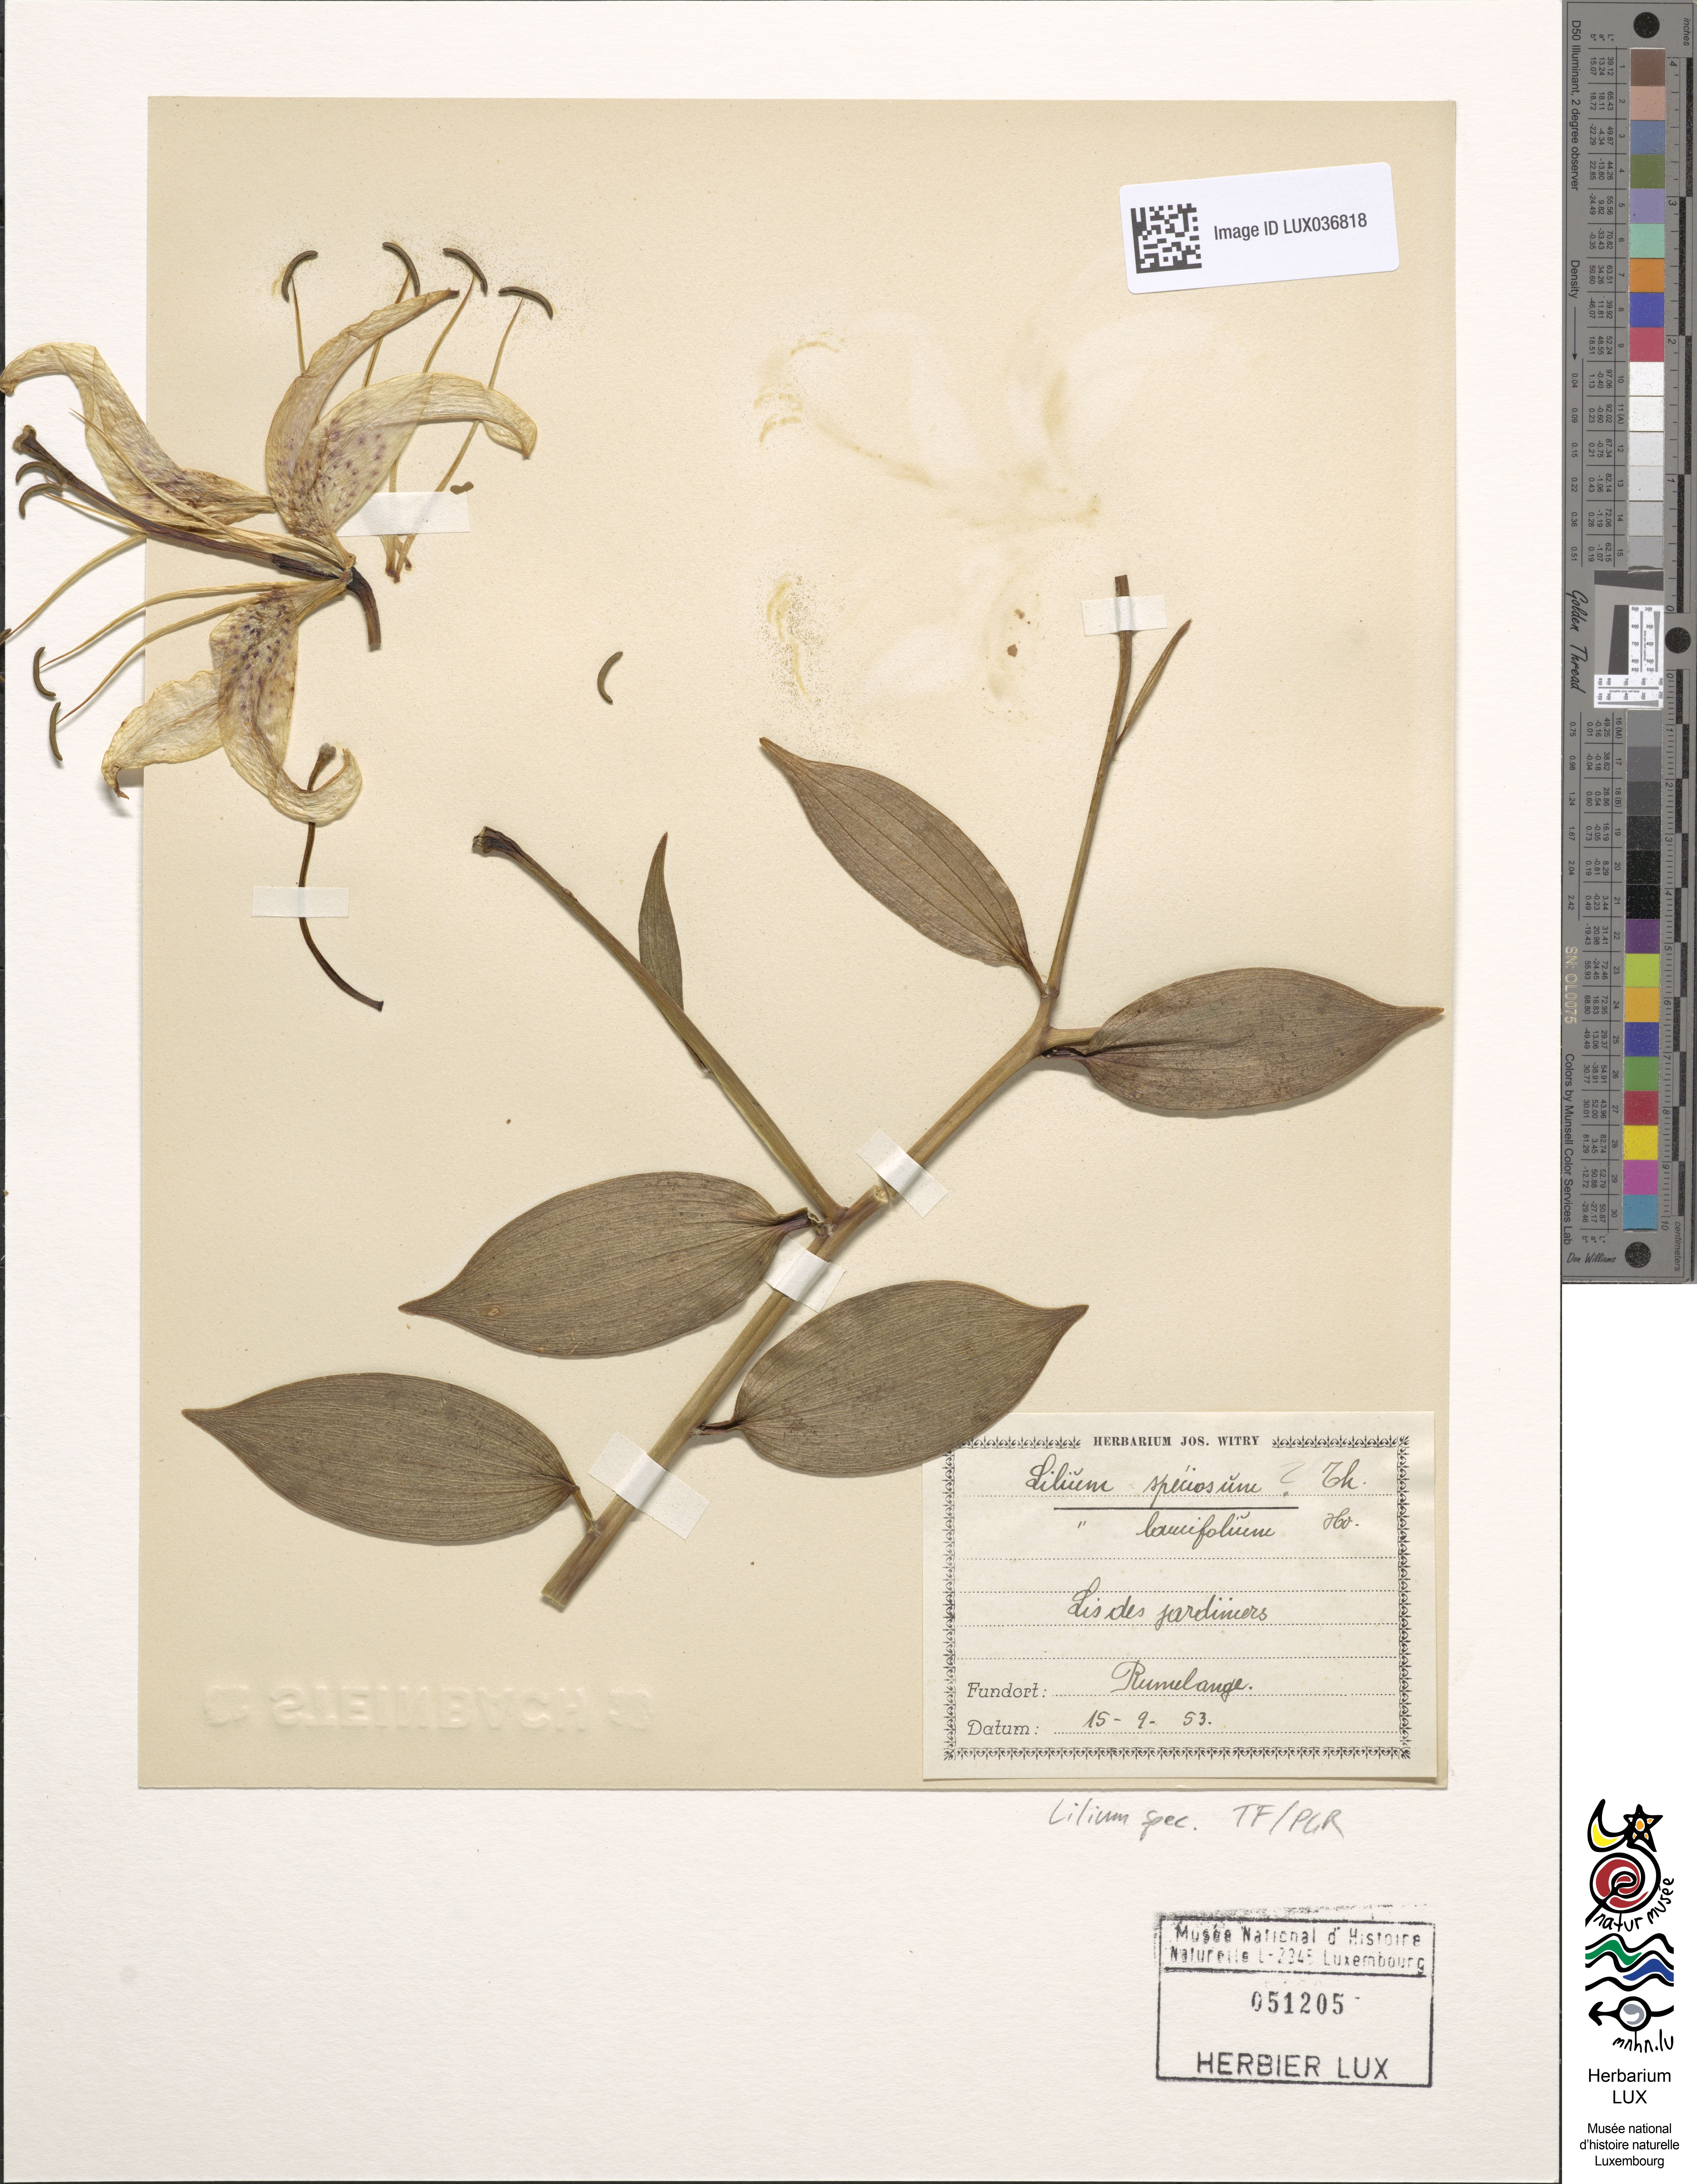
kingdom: Plantae
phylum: Tracheophyta
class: Liliopsida
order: Liliales
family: Liliaceae
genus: Lilium
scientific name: Lilium lancifolium
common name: Tiger lily
